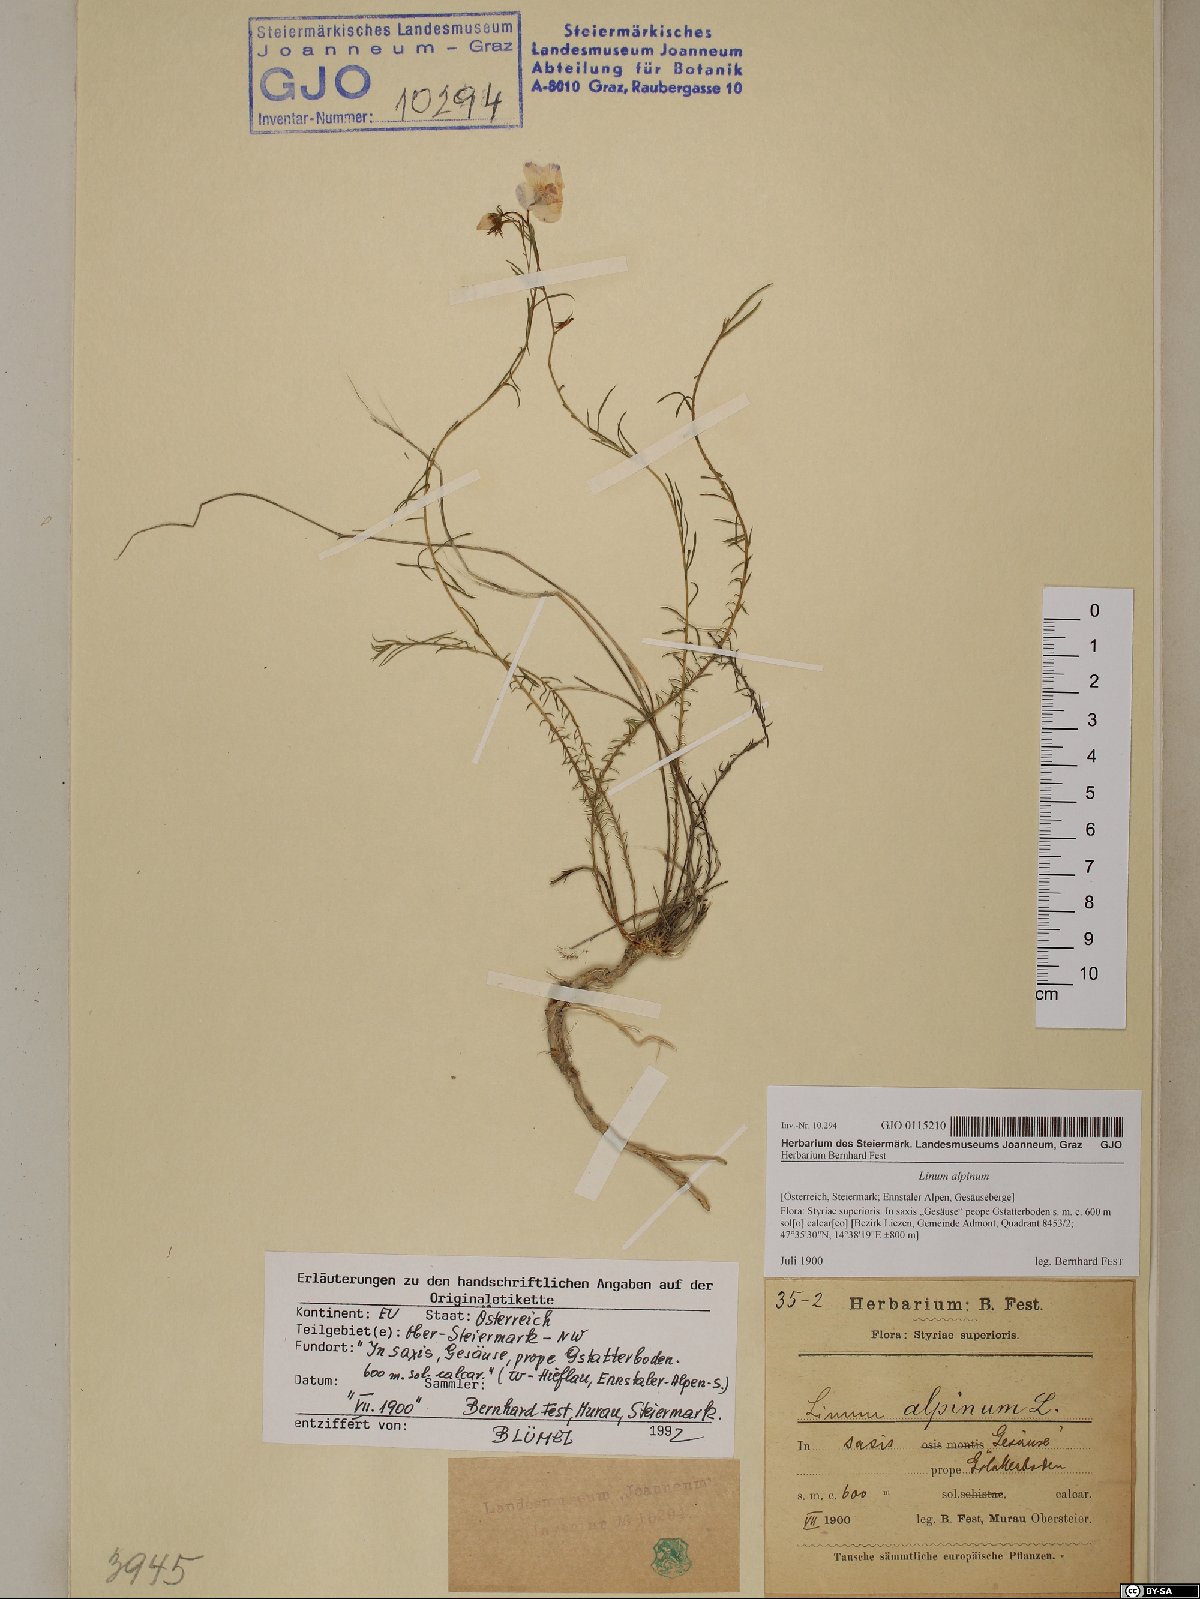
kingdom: Plantae
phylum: Tracheophyta
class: Magnoliopsida
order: Malpighiales
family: Linaceae
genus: Linum
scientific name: Linum alpinum
